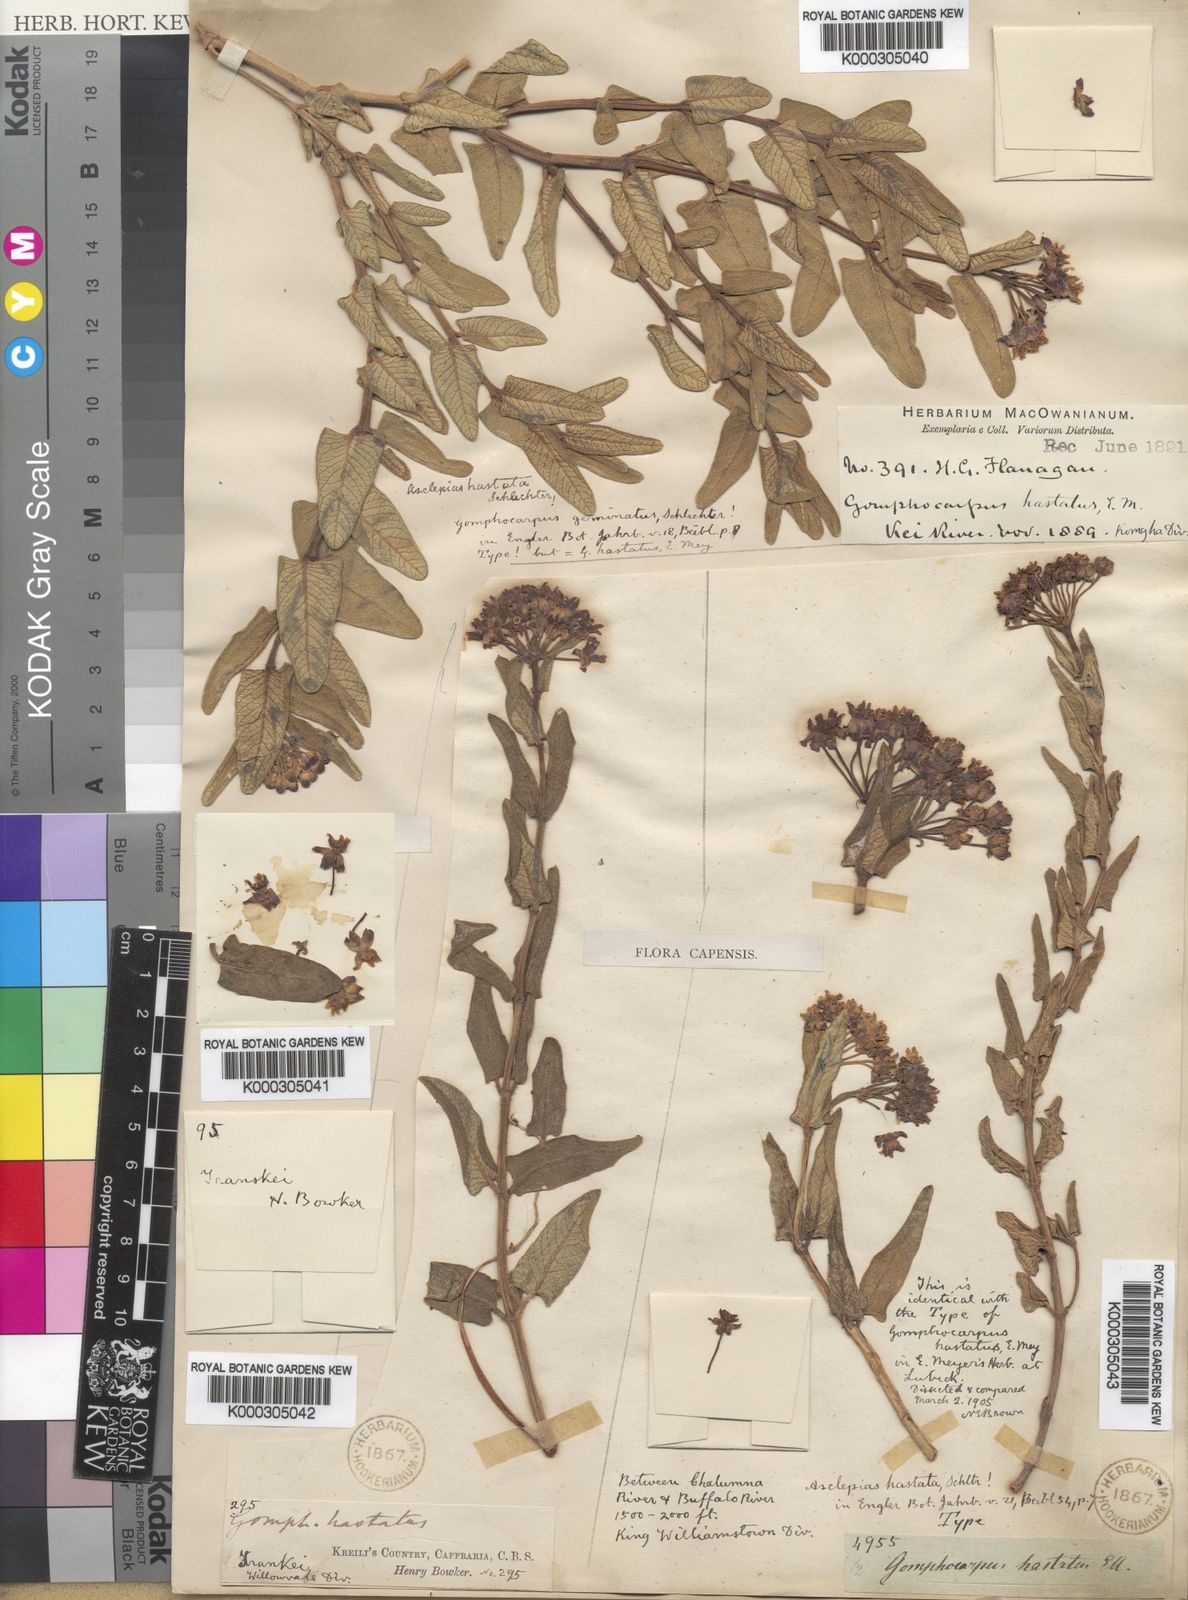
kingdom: Plantae
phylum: Tracheophyta
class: Magnoliopsida
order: Gentianales
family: Apocynaceae
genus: Asclepias
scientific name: Asclepias flanaganii
